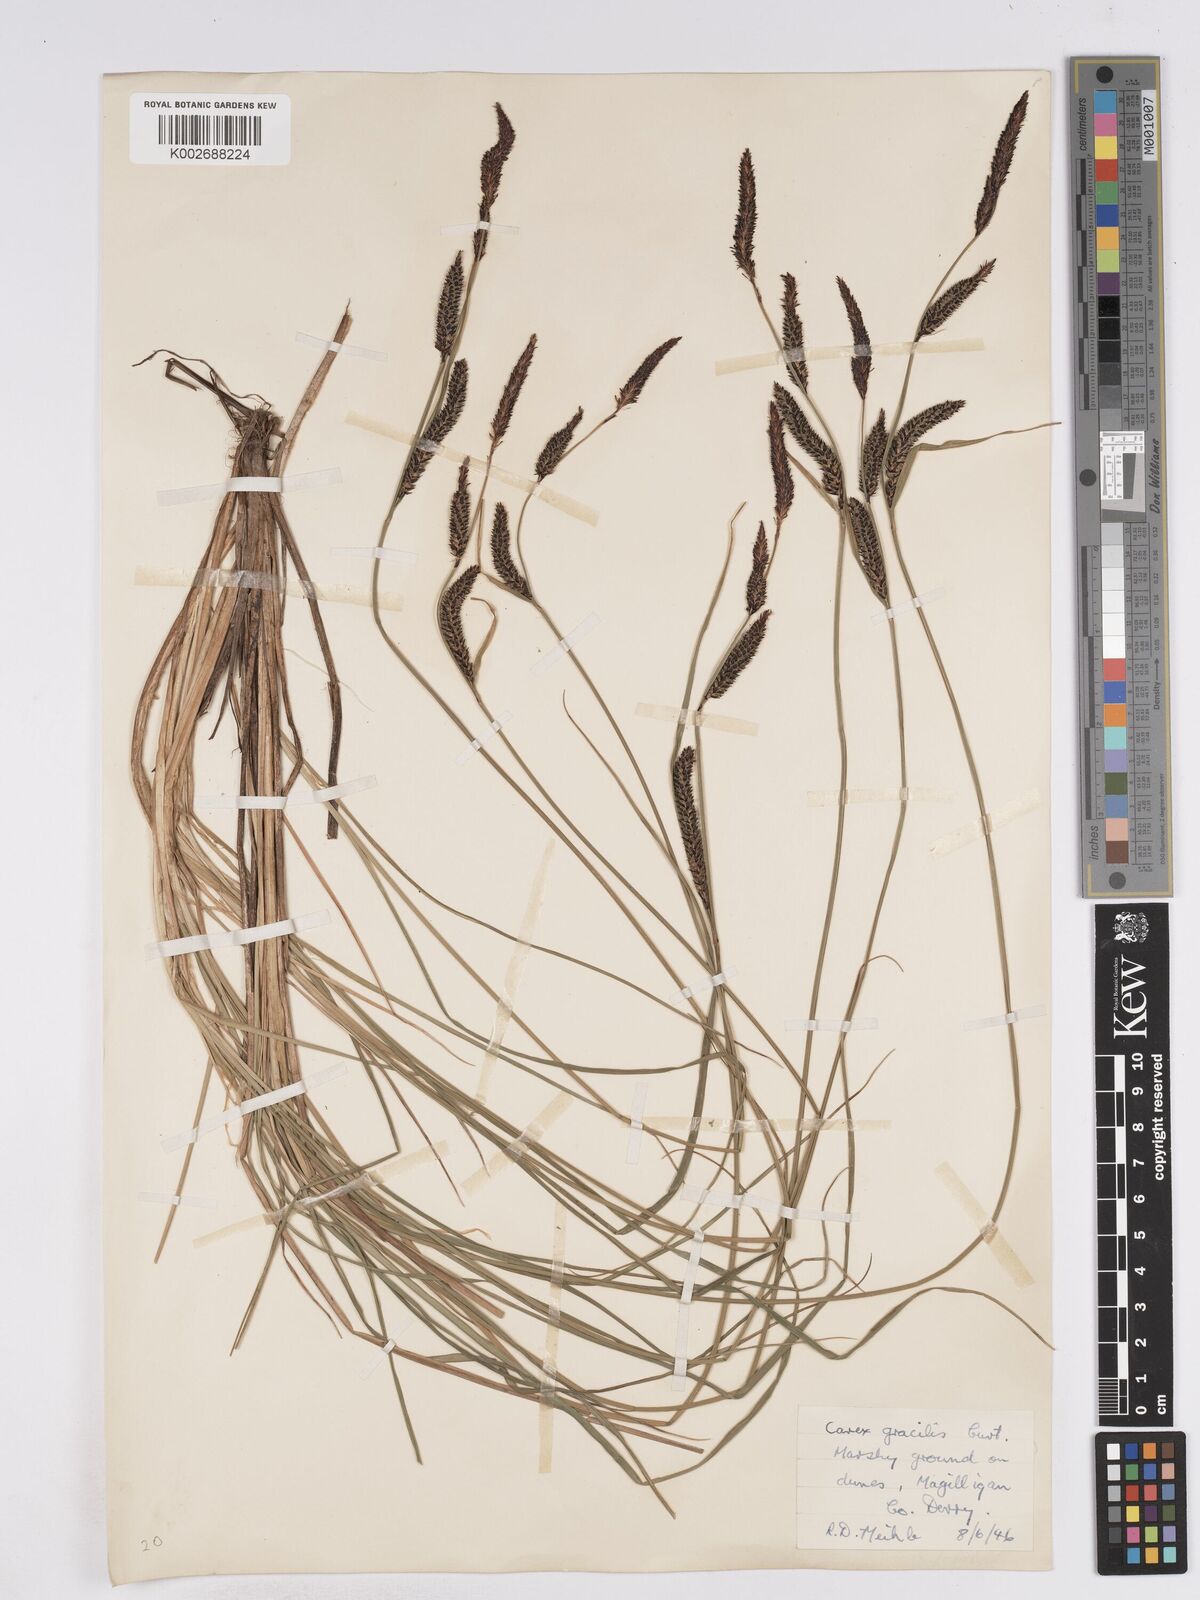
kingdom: Plantae
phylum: Tracheophyta
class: Liliopsida
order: Poales
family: Cyperaceae
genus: Carex
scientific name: Carex elata
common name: Tufted sedge
